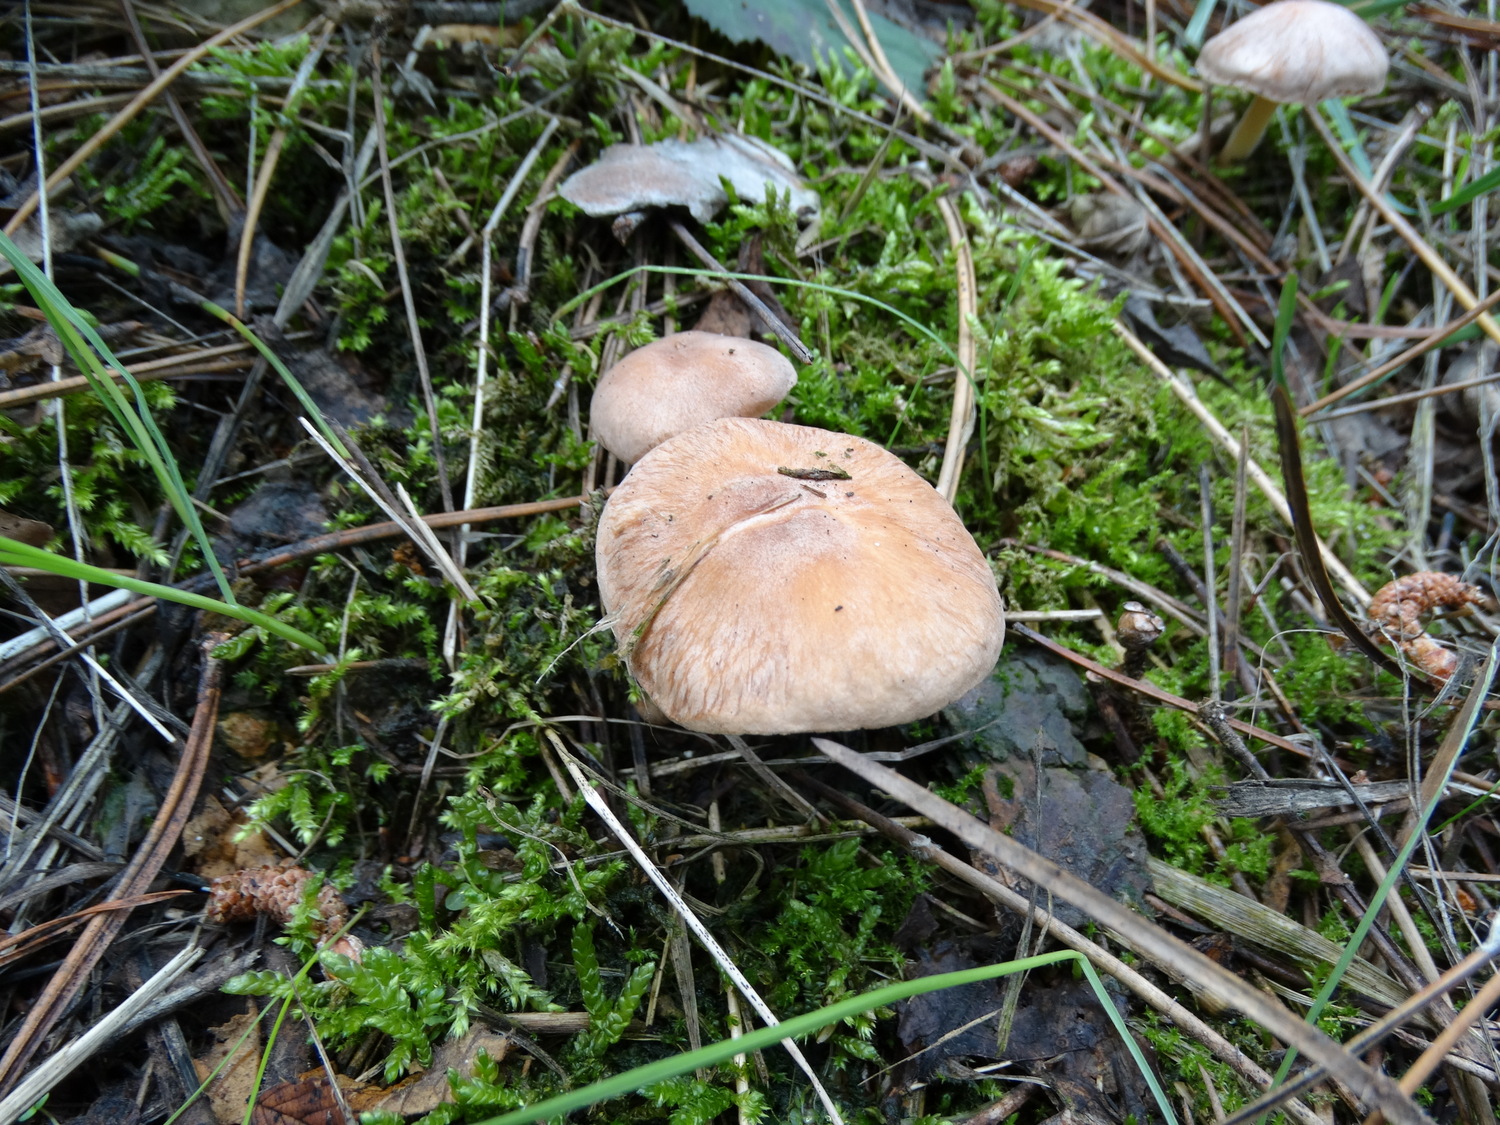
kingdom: Fungi
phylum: Basidiomycota
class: Agaricomycetes
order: Agaricales
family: Omphalotaceae
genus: Collybiopsis
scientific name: Collybiopsis peronata
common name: bestøvlet fladhat
